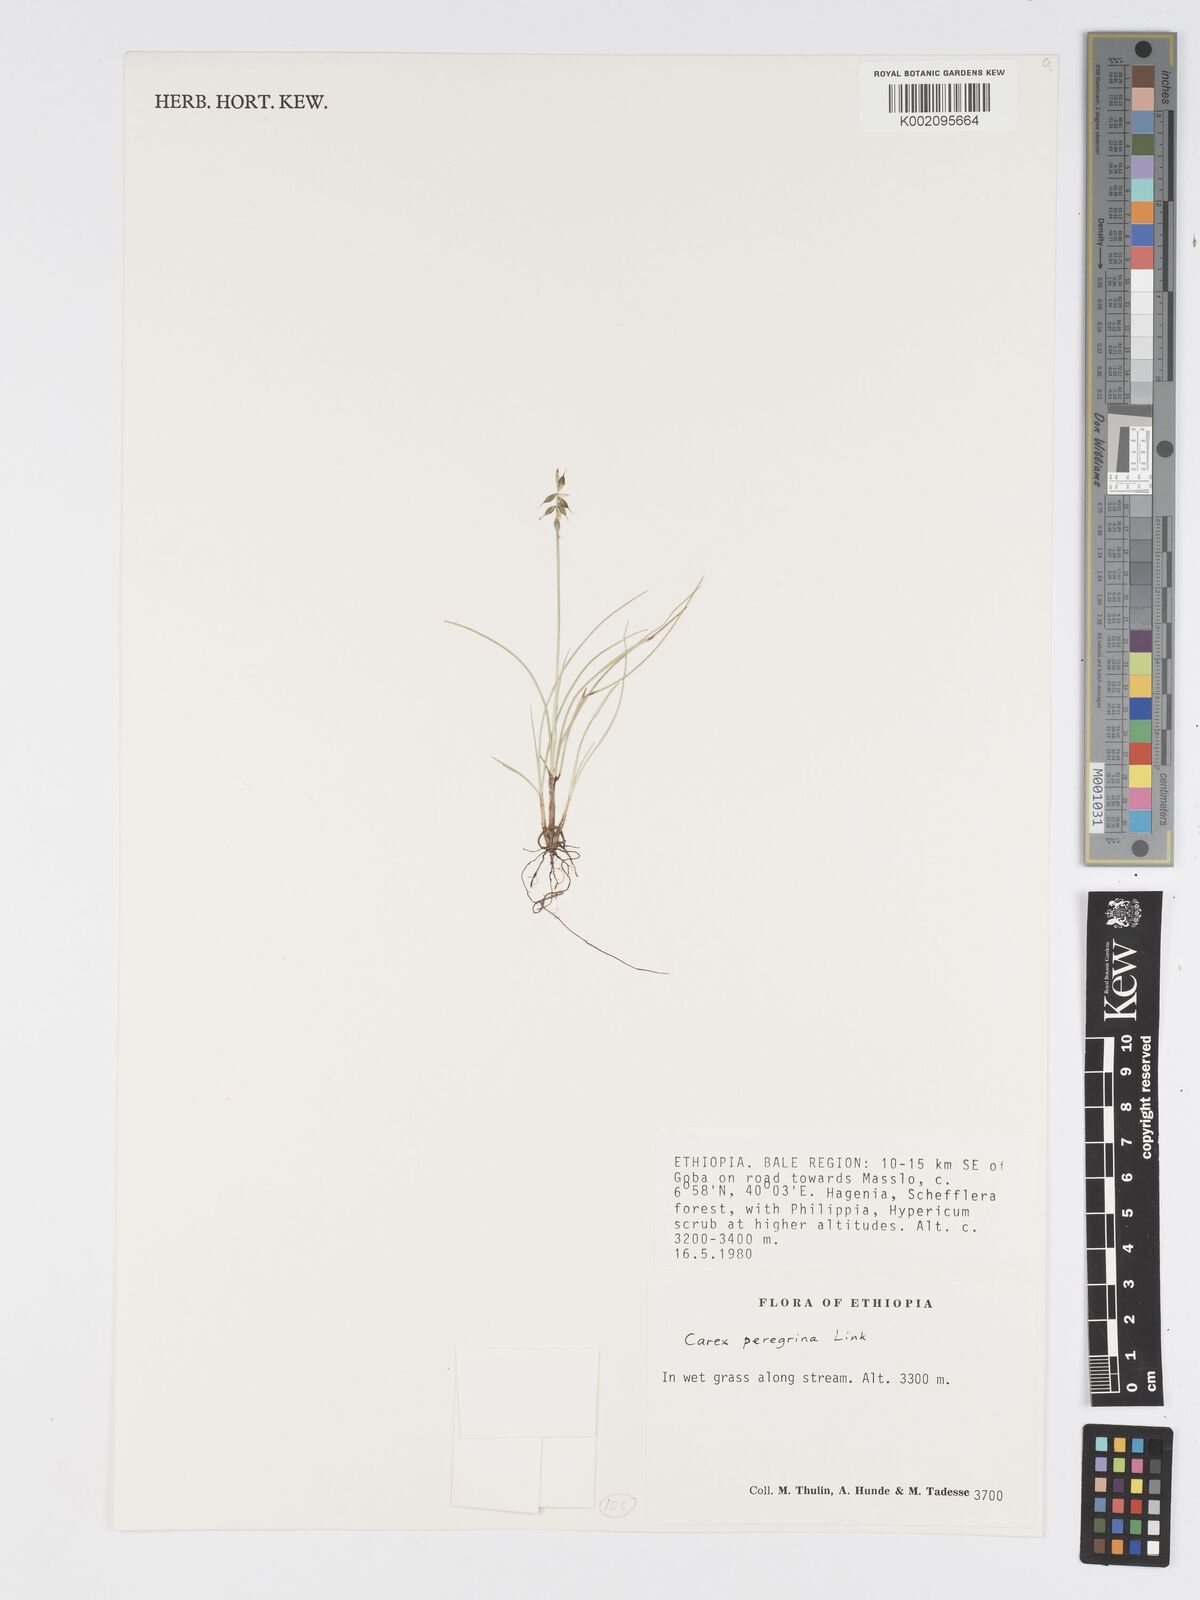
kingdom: Plantae
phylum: Tracheophyta
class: Liliopsida
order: Poales
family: Cyperaceae
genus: Carex
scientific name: Carex peregrina
